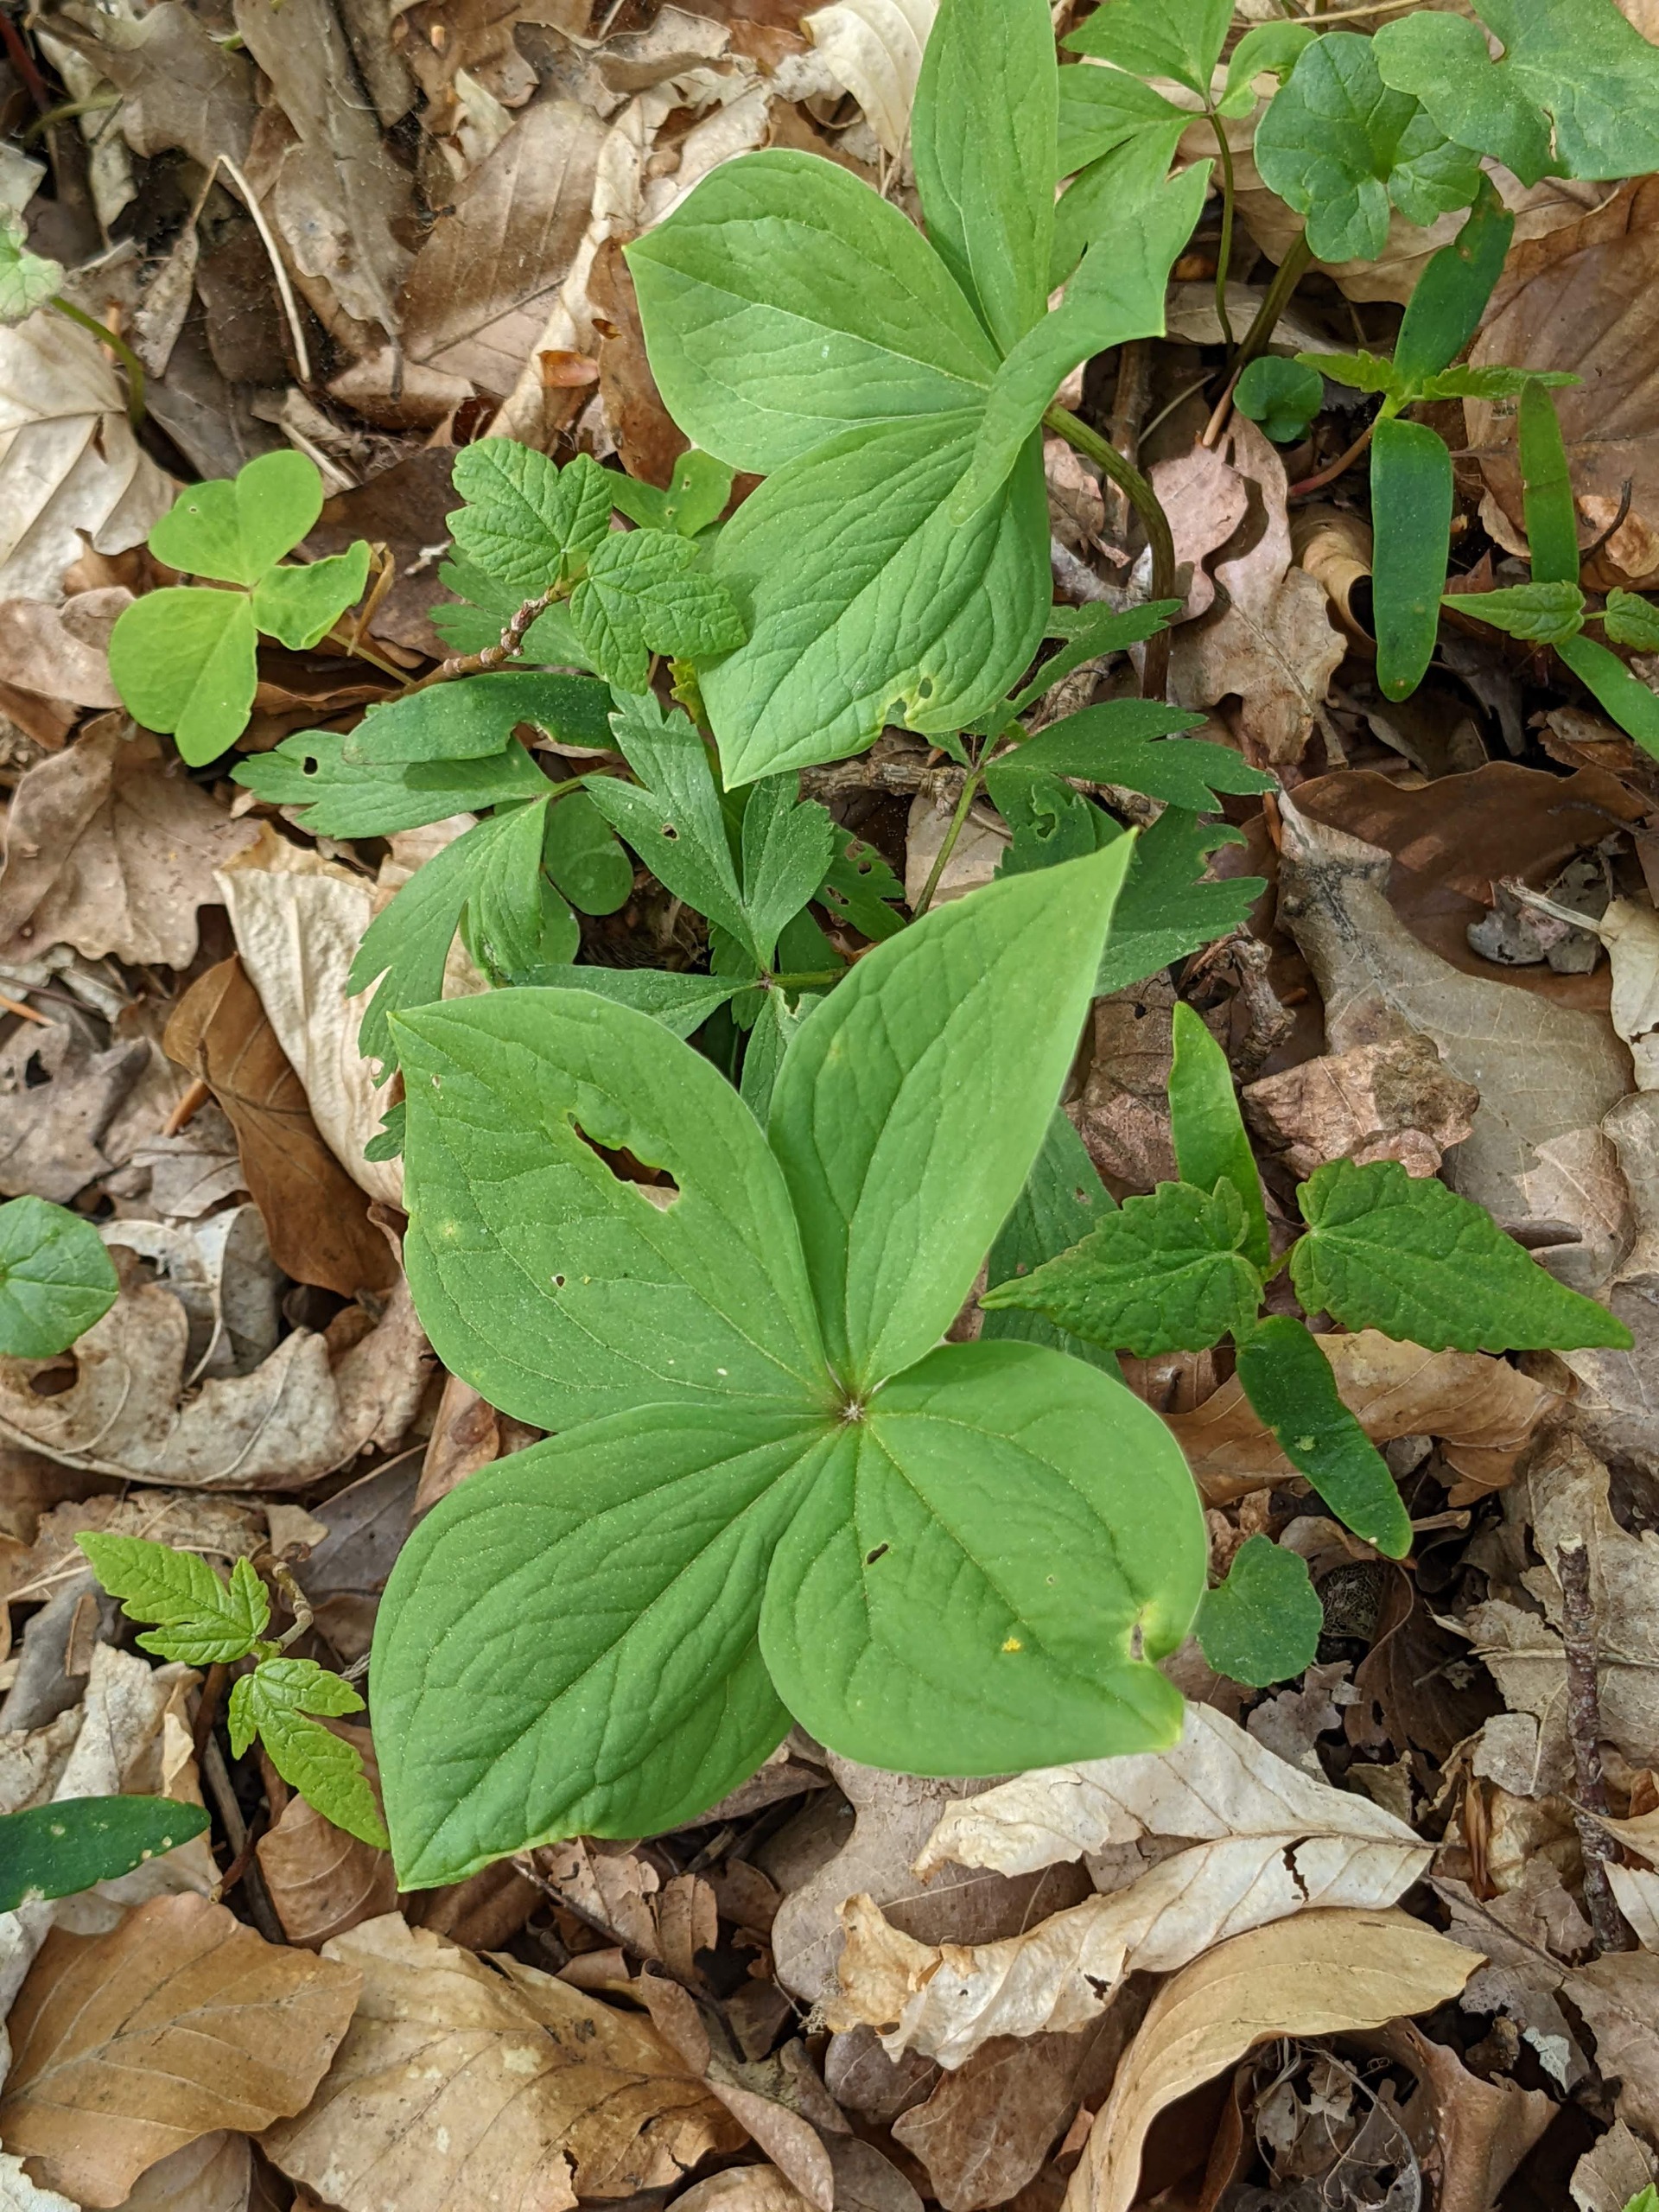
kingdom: Plantae
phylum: Tracheophyta
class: Liliopsida
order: Liliales
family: Melanthiaceae
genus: Paris
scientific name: Paris quadrifolia
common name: Firblad
